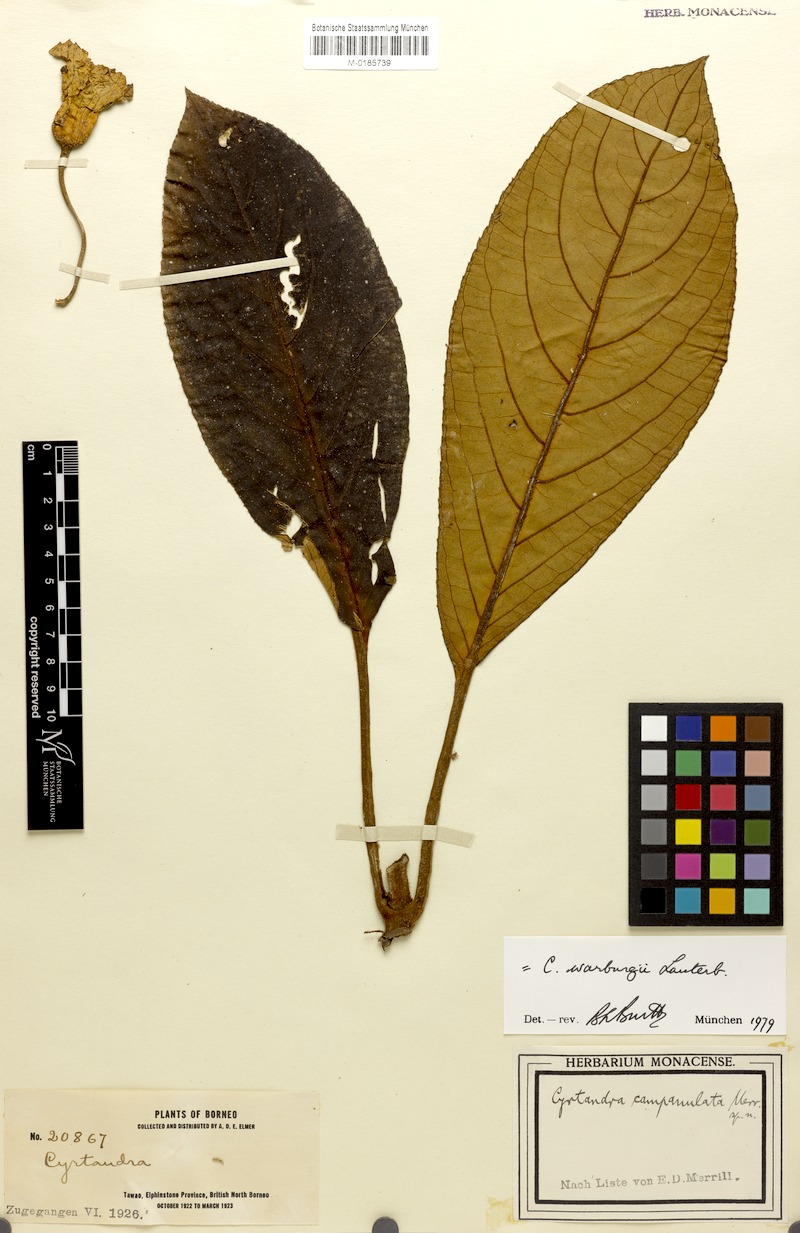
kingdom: Plantae
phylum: Tracheophyta
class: Magnoliopsida
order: Lamiales
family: Gesneriaceae
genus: Cyrtandra
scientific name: Cyrtandra
